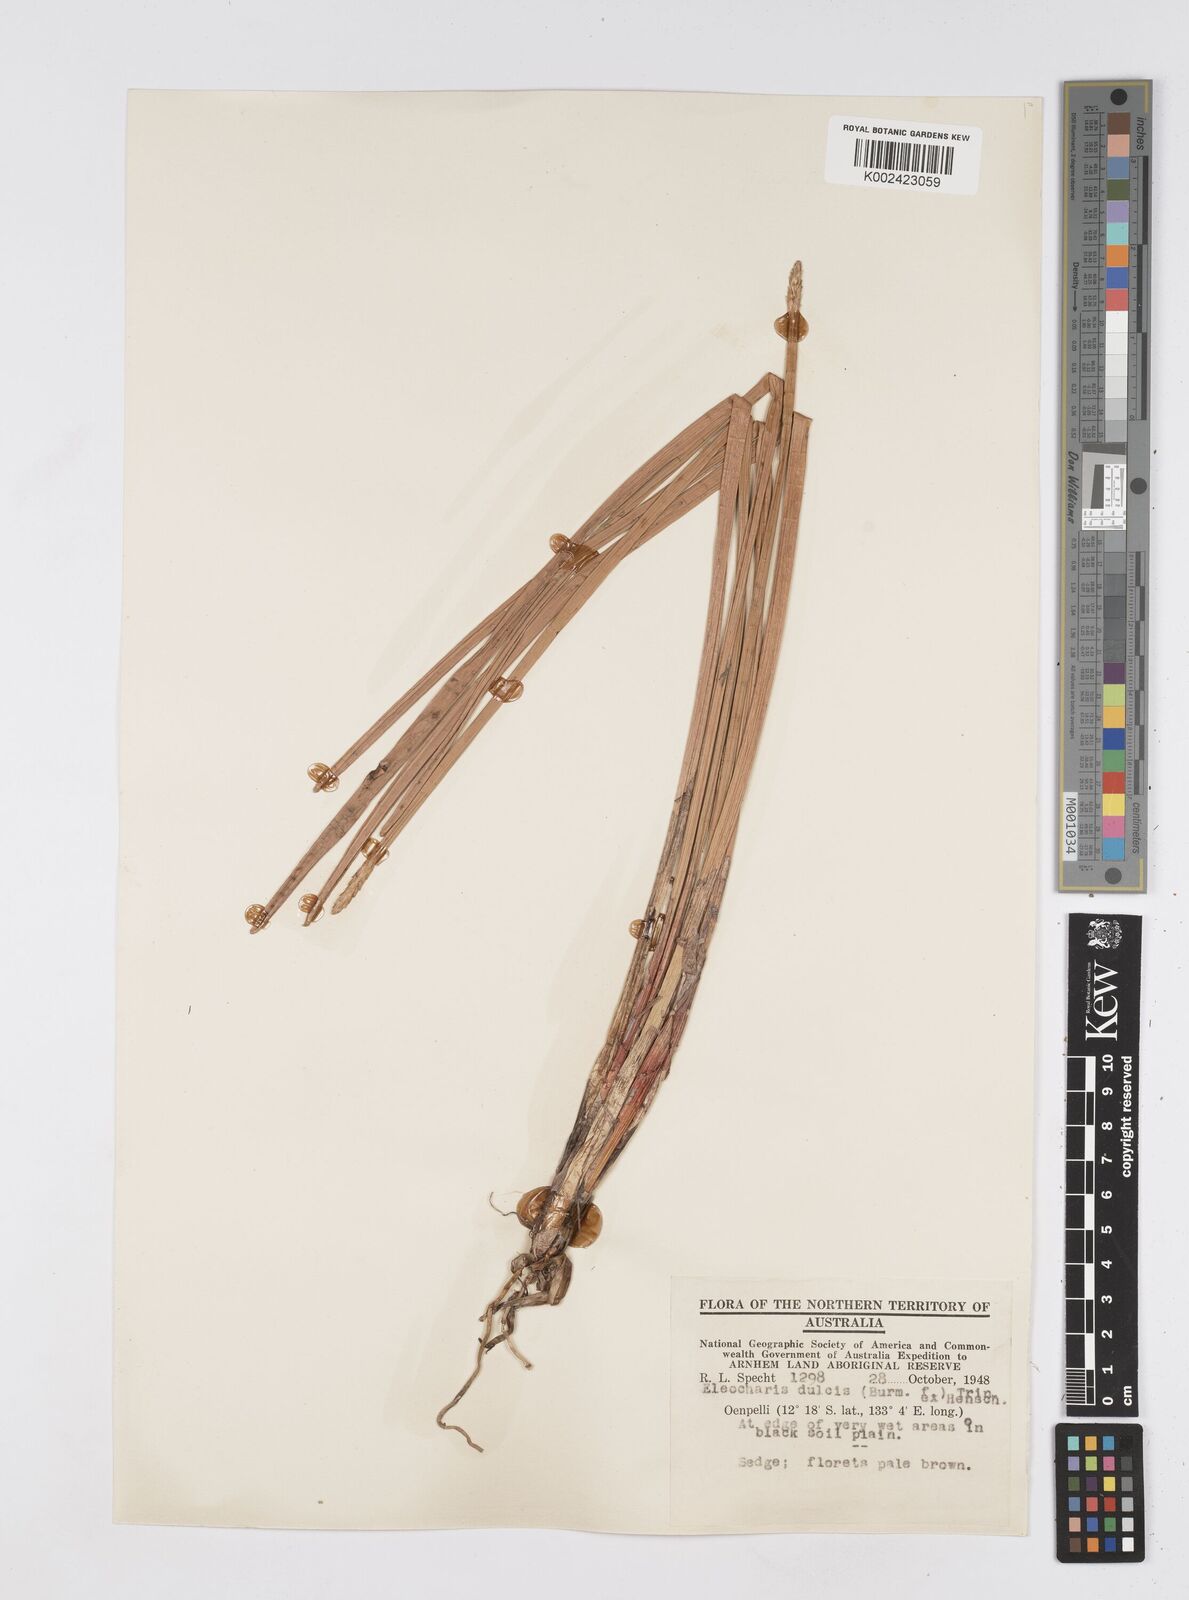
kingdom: Plantae
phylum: Tracheophyta
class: Liliopsida
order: Poales
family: Cyperaceae
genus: Eleocharis
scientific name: Eleocharis dulcis
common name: Chinese water chestnut
